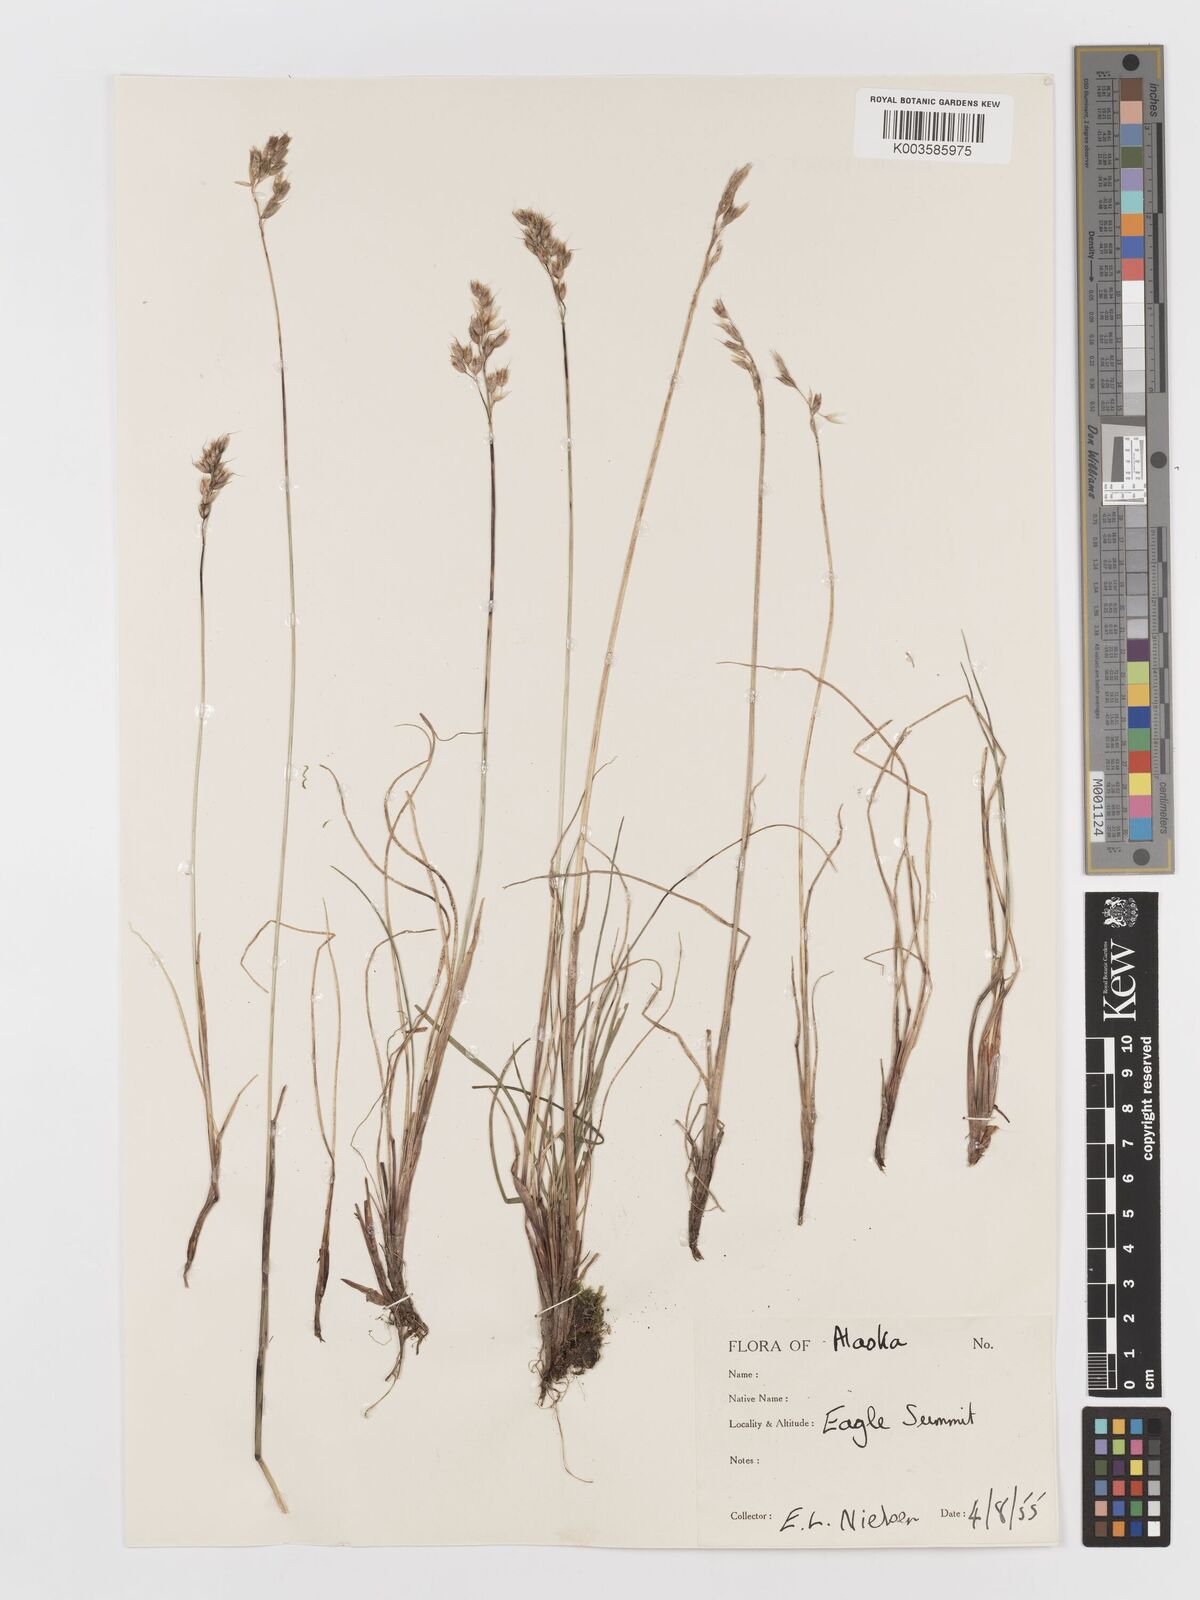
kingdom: Plantae
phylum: Tracheophyta
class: Liliopsida
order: Poales
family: Poaceae
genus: Anthoxanthum
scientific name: Anthoxanthum monticola
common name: Alpine sweetgrass
